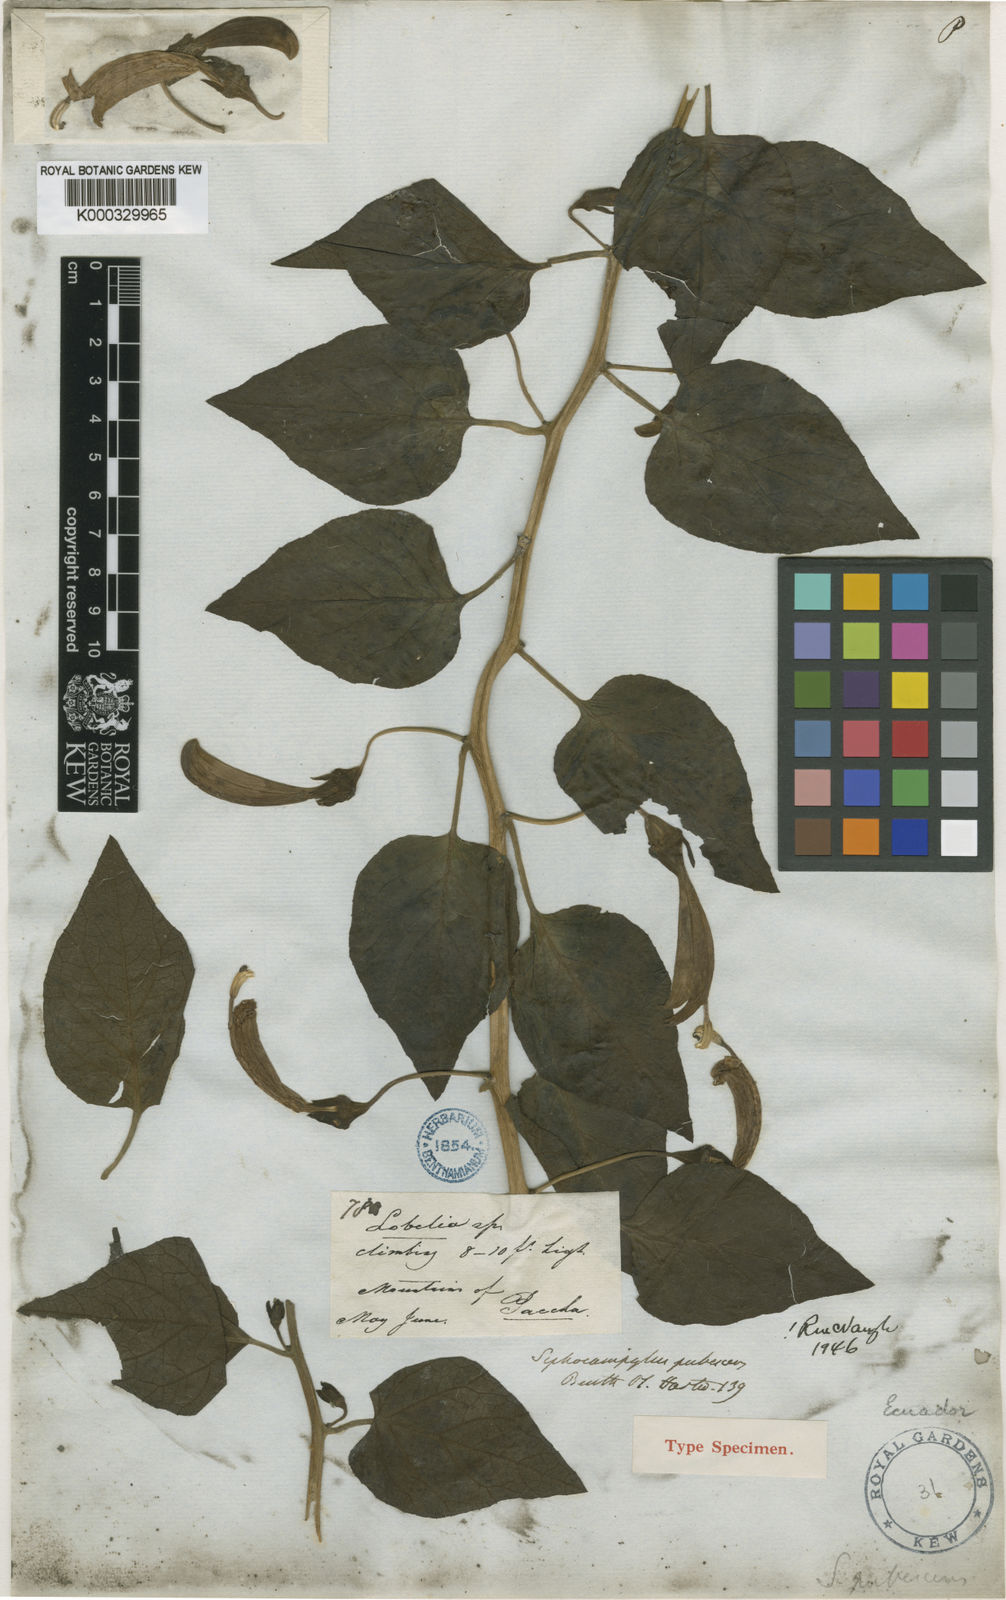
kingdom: Plantae
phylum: Tracheophyta
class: Magnoliopsida
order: Asterales
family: Campanulaceae
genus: Siphocampylus
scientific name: Siphocampylus humboldtianus
